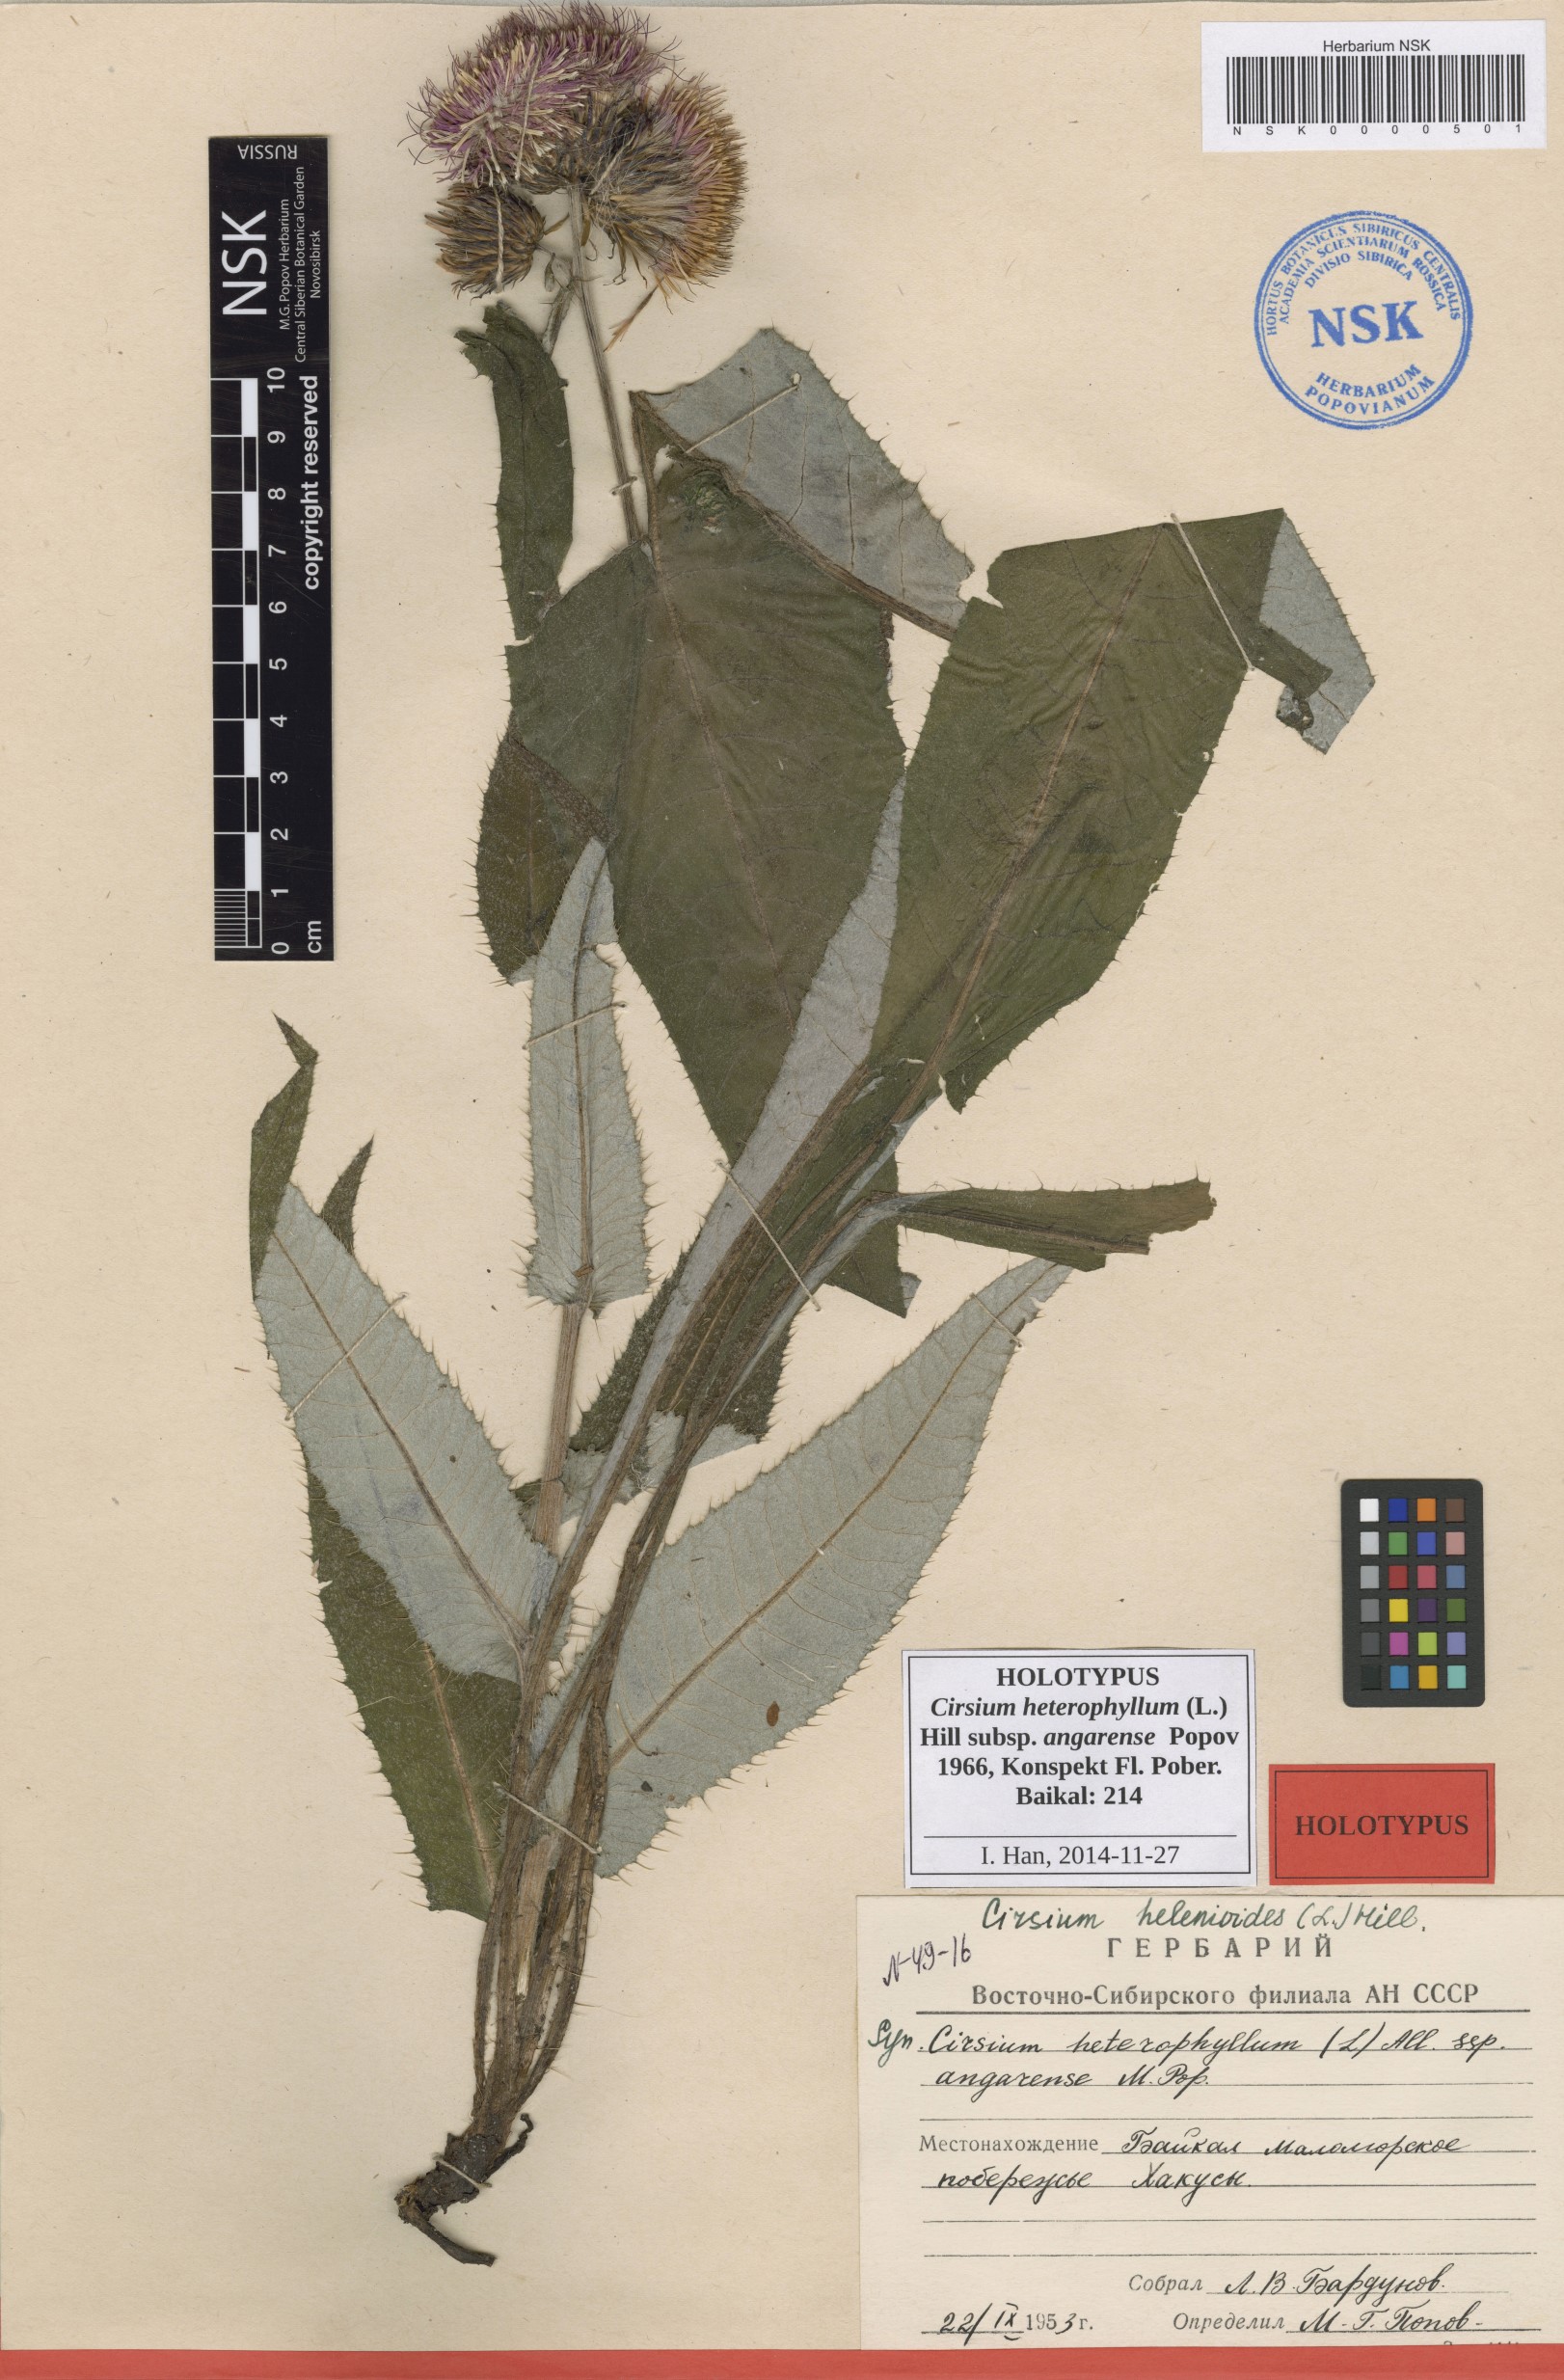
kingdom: Plantae
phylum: Tracheophyta
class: Magnoliopsida
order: Asterales
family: Asteraceae
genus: Cirsium
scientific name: Cirsium helenioides
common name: Melancholy thistle
